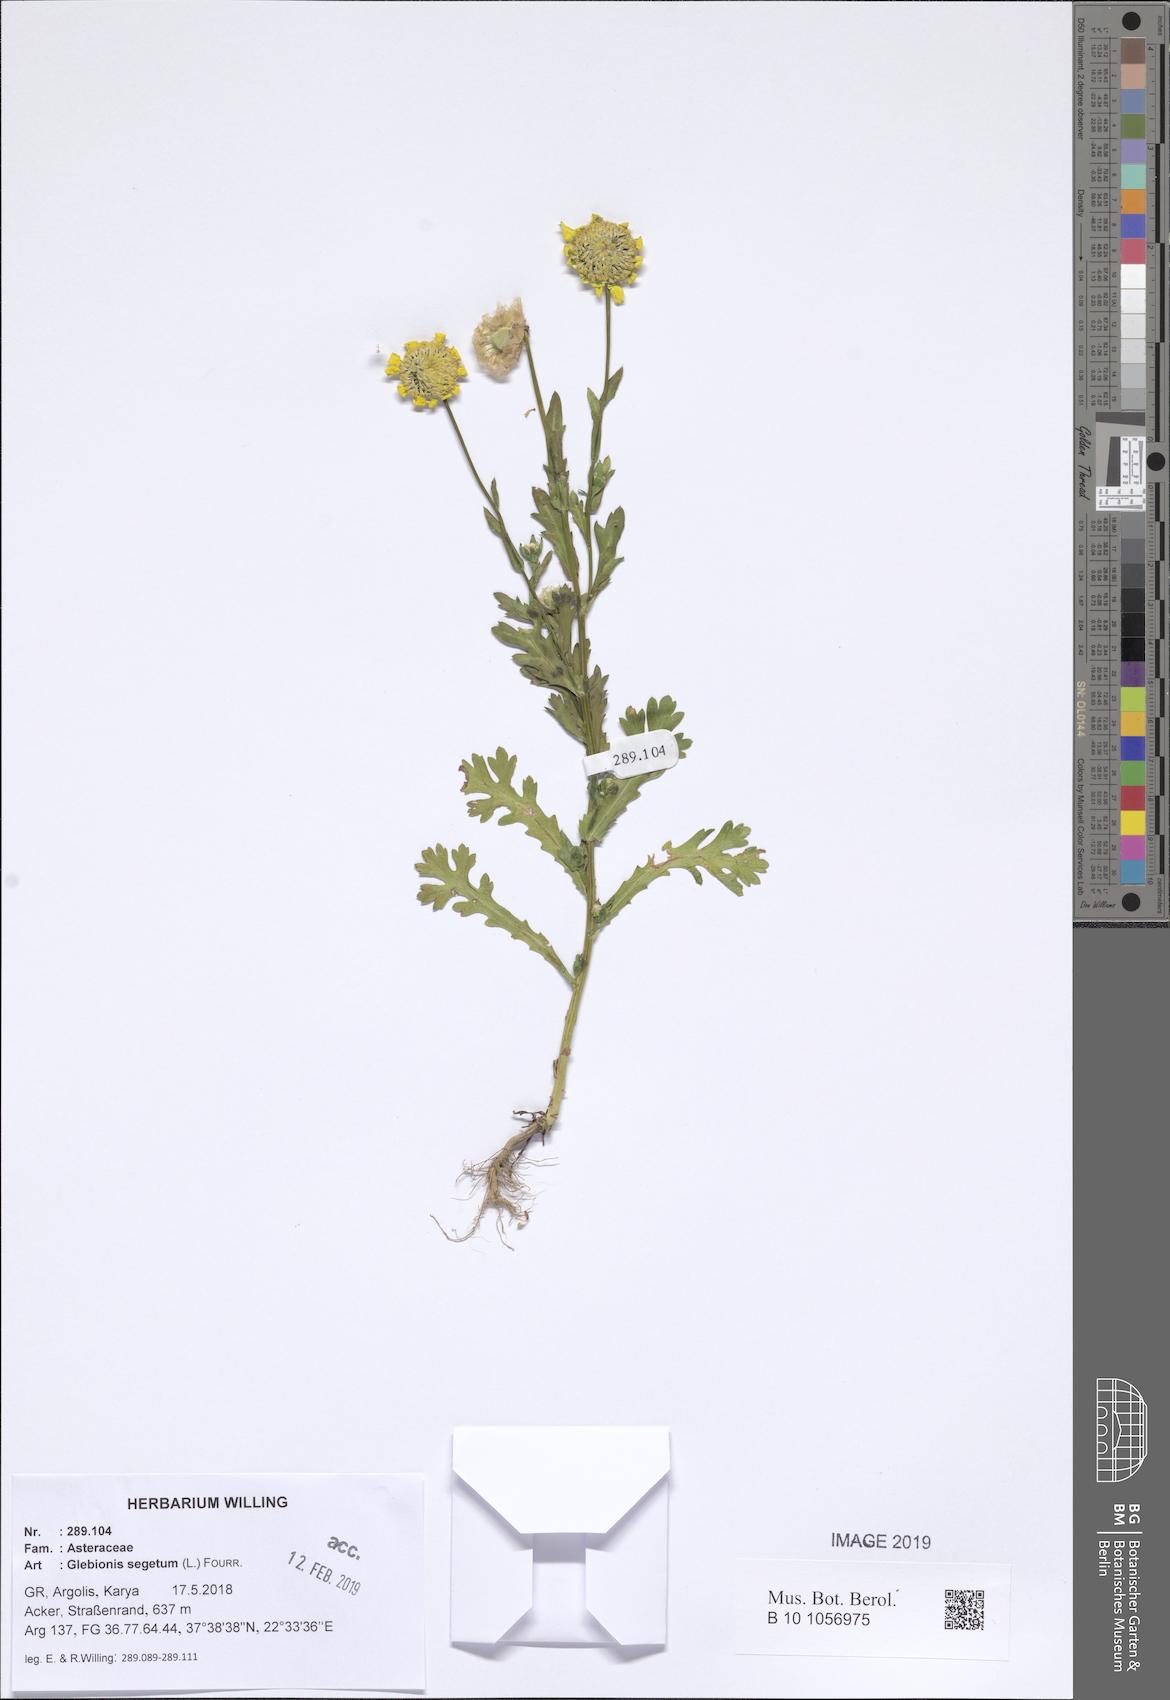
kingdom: Plantae
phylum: Tracheophyta
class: Magnoliopsida
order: Asterales
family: Asteraceae
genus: Glebionis
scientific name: Glebionis segetum
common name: Corndaisy
